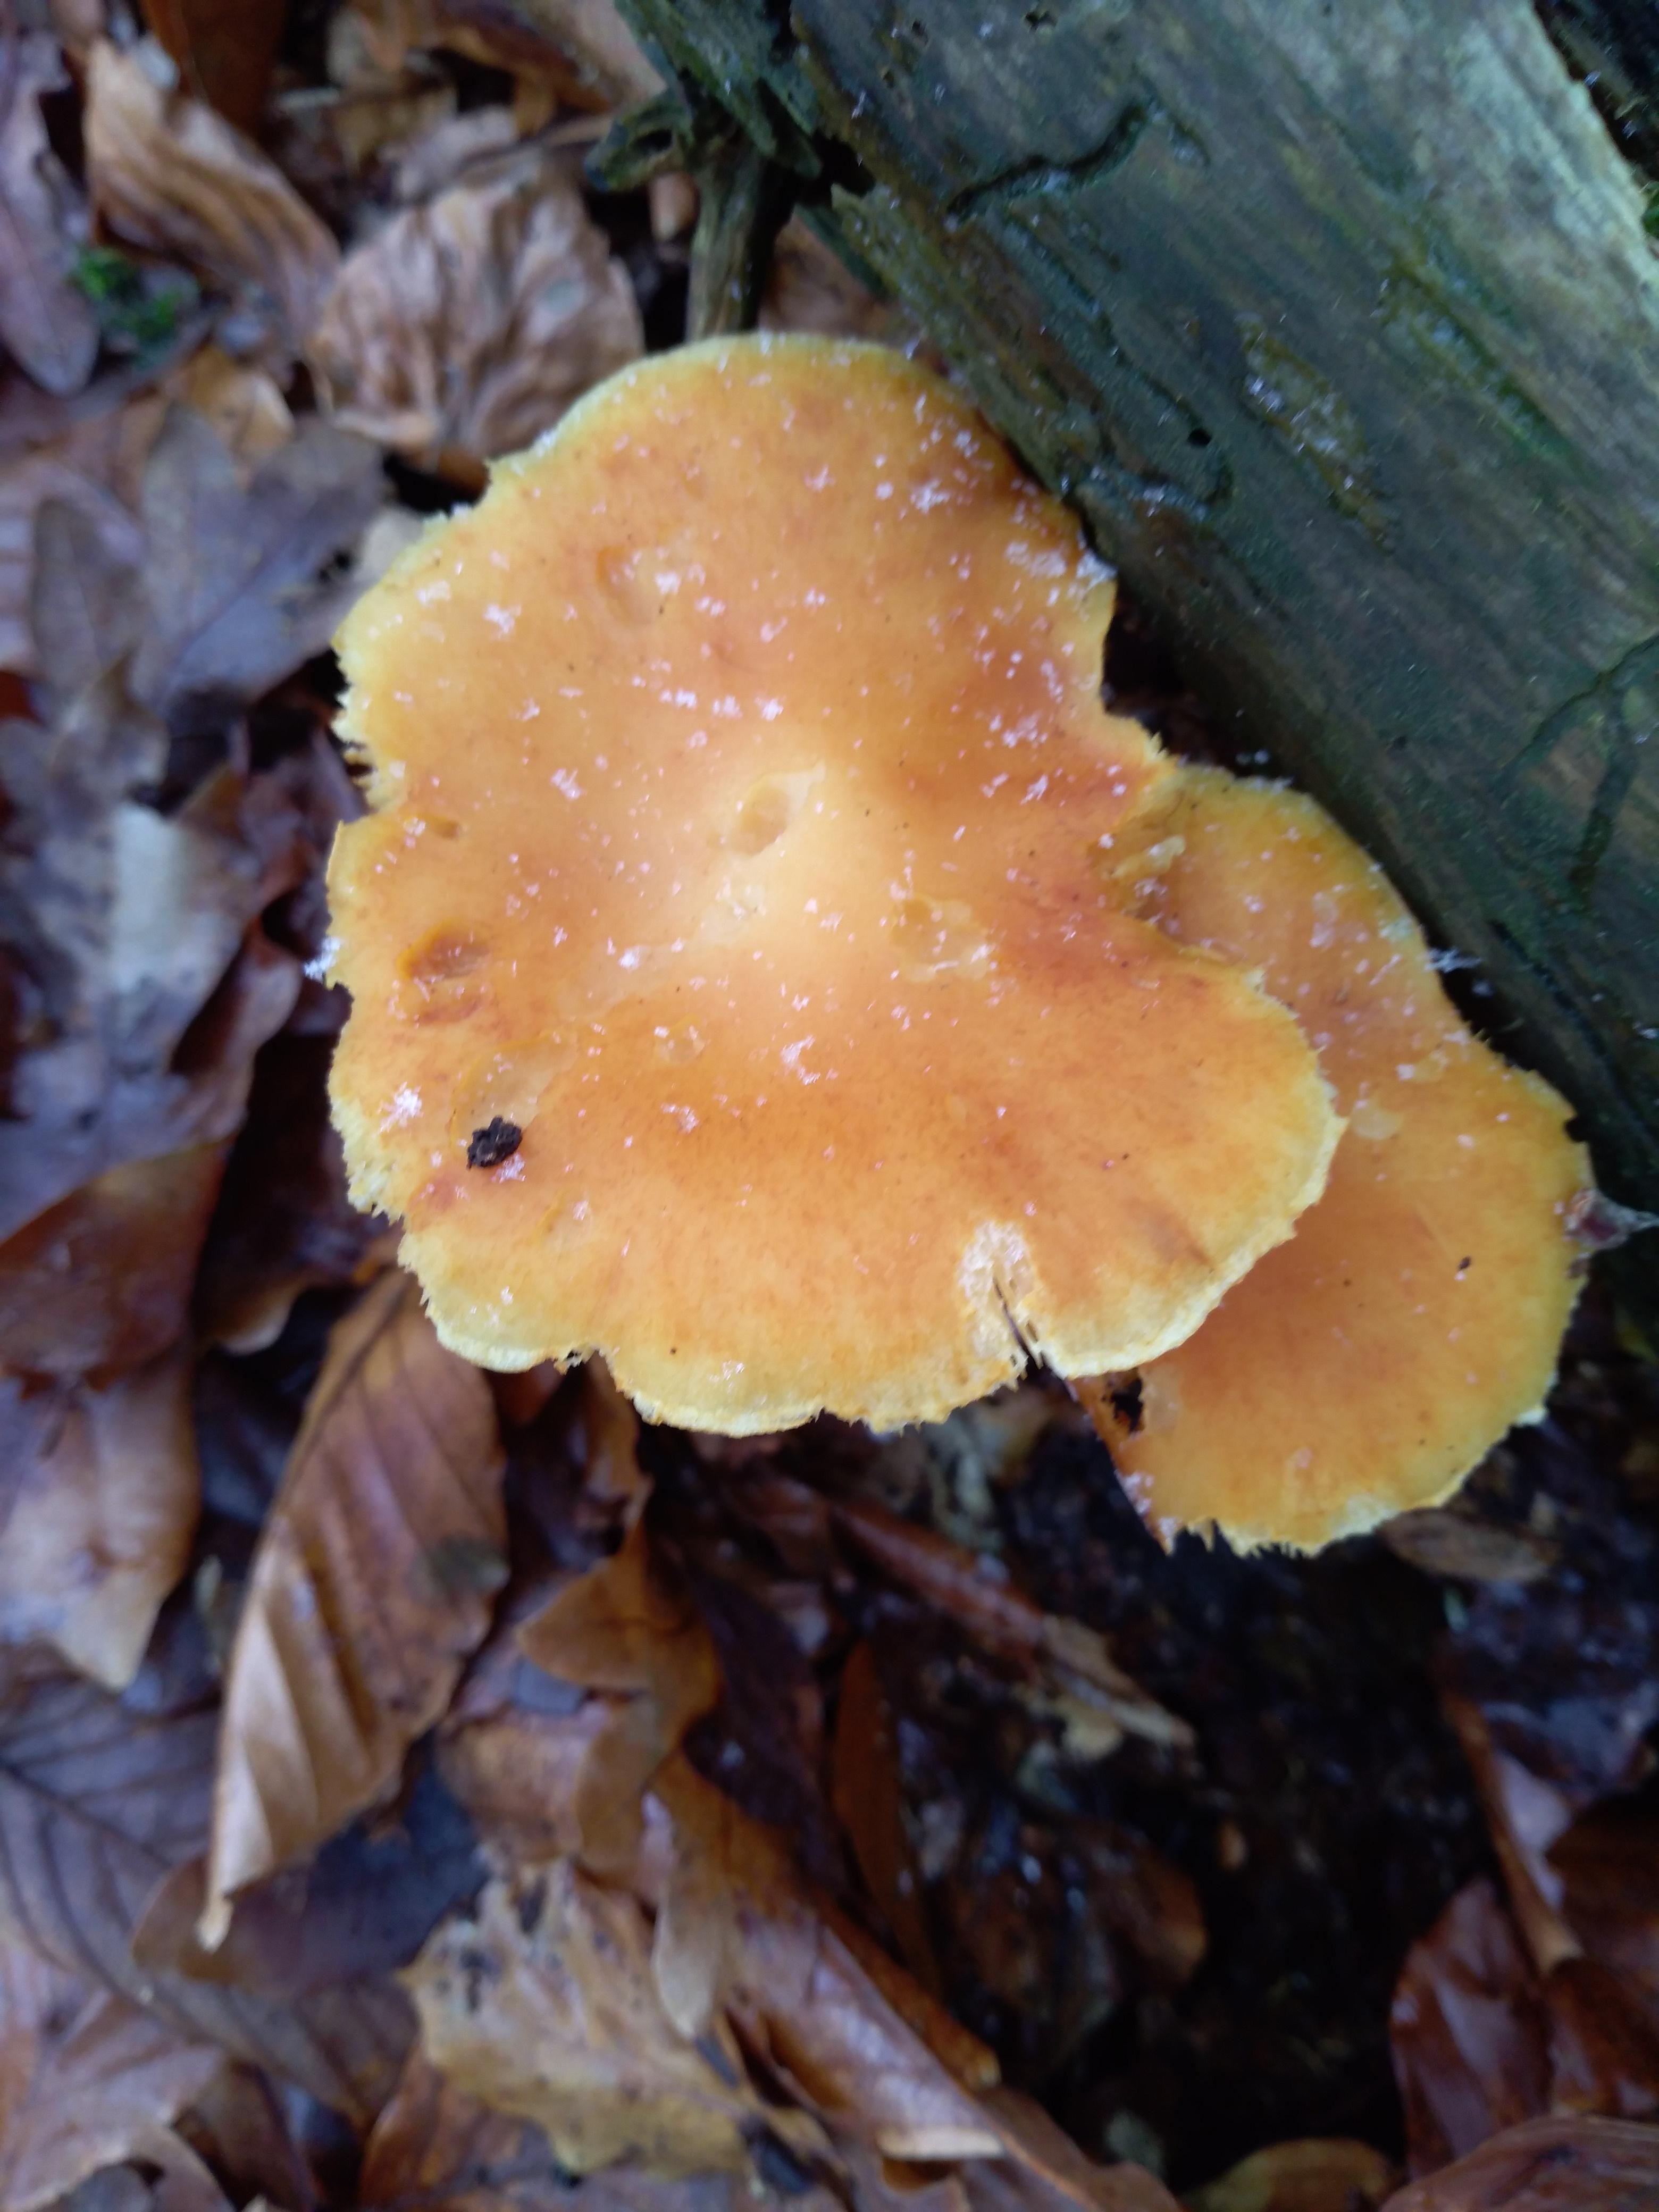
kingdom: Fungi
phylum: Basidiomycota
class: Agaricomycetes
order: Agaricales
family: Hymenogastraceae
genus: Gymnopilus
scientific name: Gymnopilus penetrans
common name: plettet flammehat
